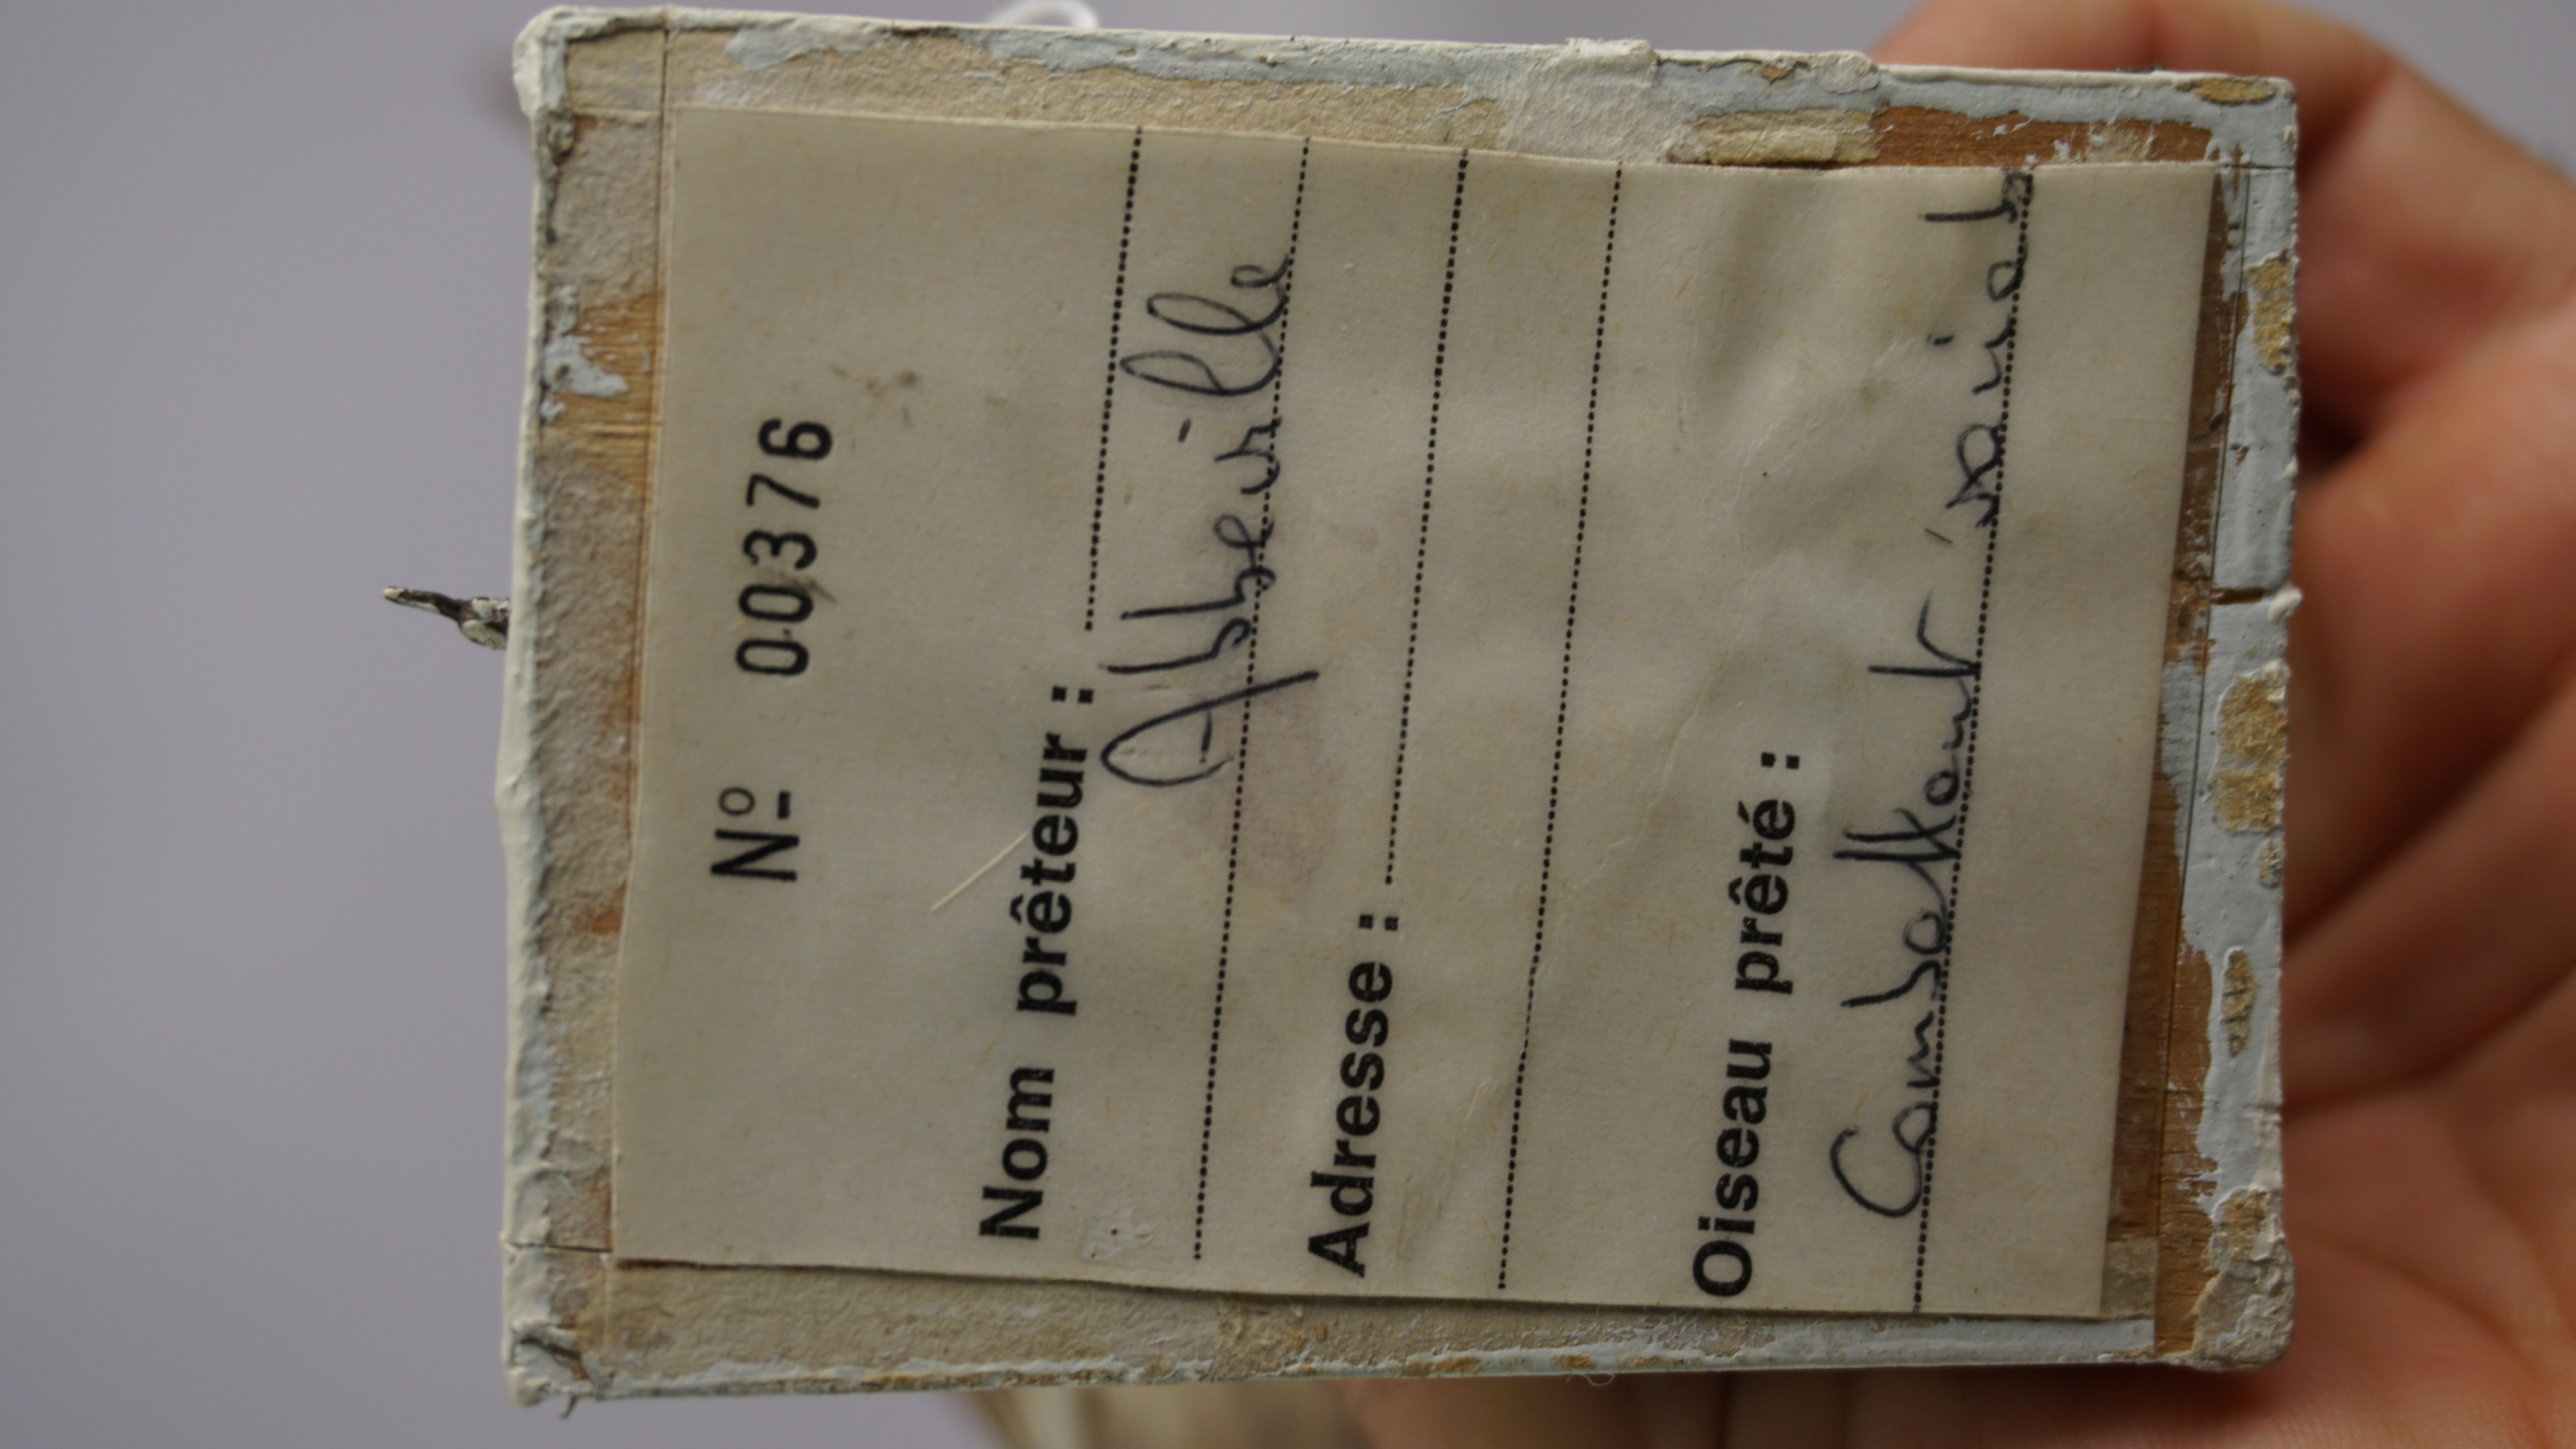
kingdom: Animalia
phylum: Chordata
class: Aves
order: Charadriiformes
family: Scolopacidae
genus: Calidris
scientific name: Calidris pugnax
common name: Ruff
